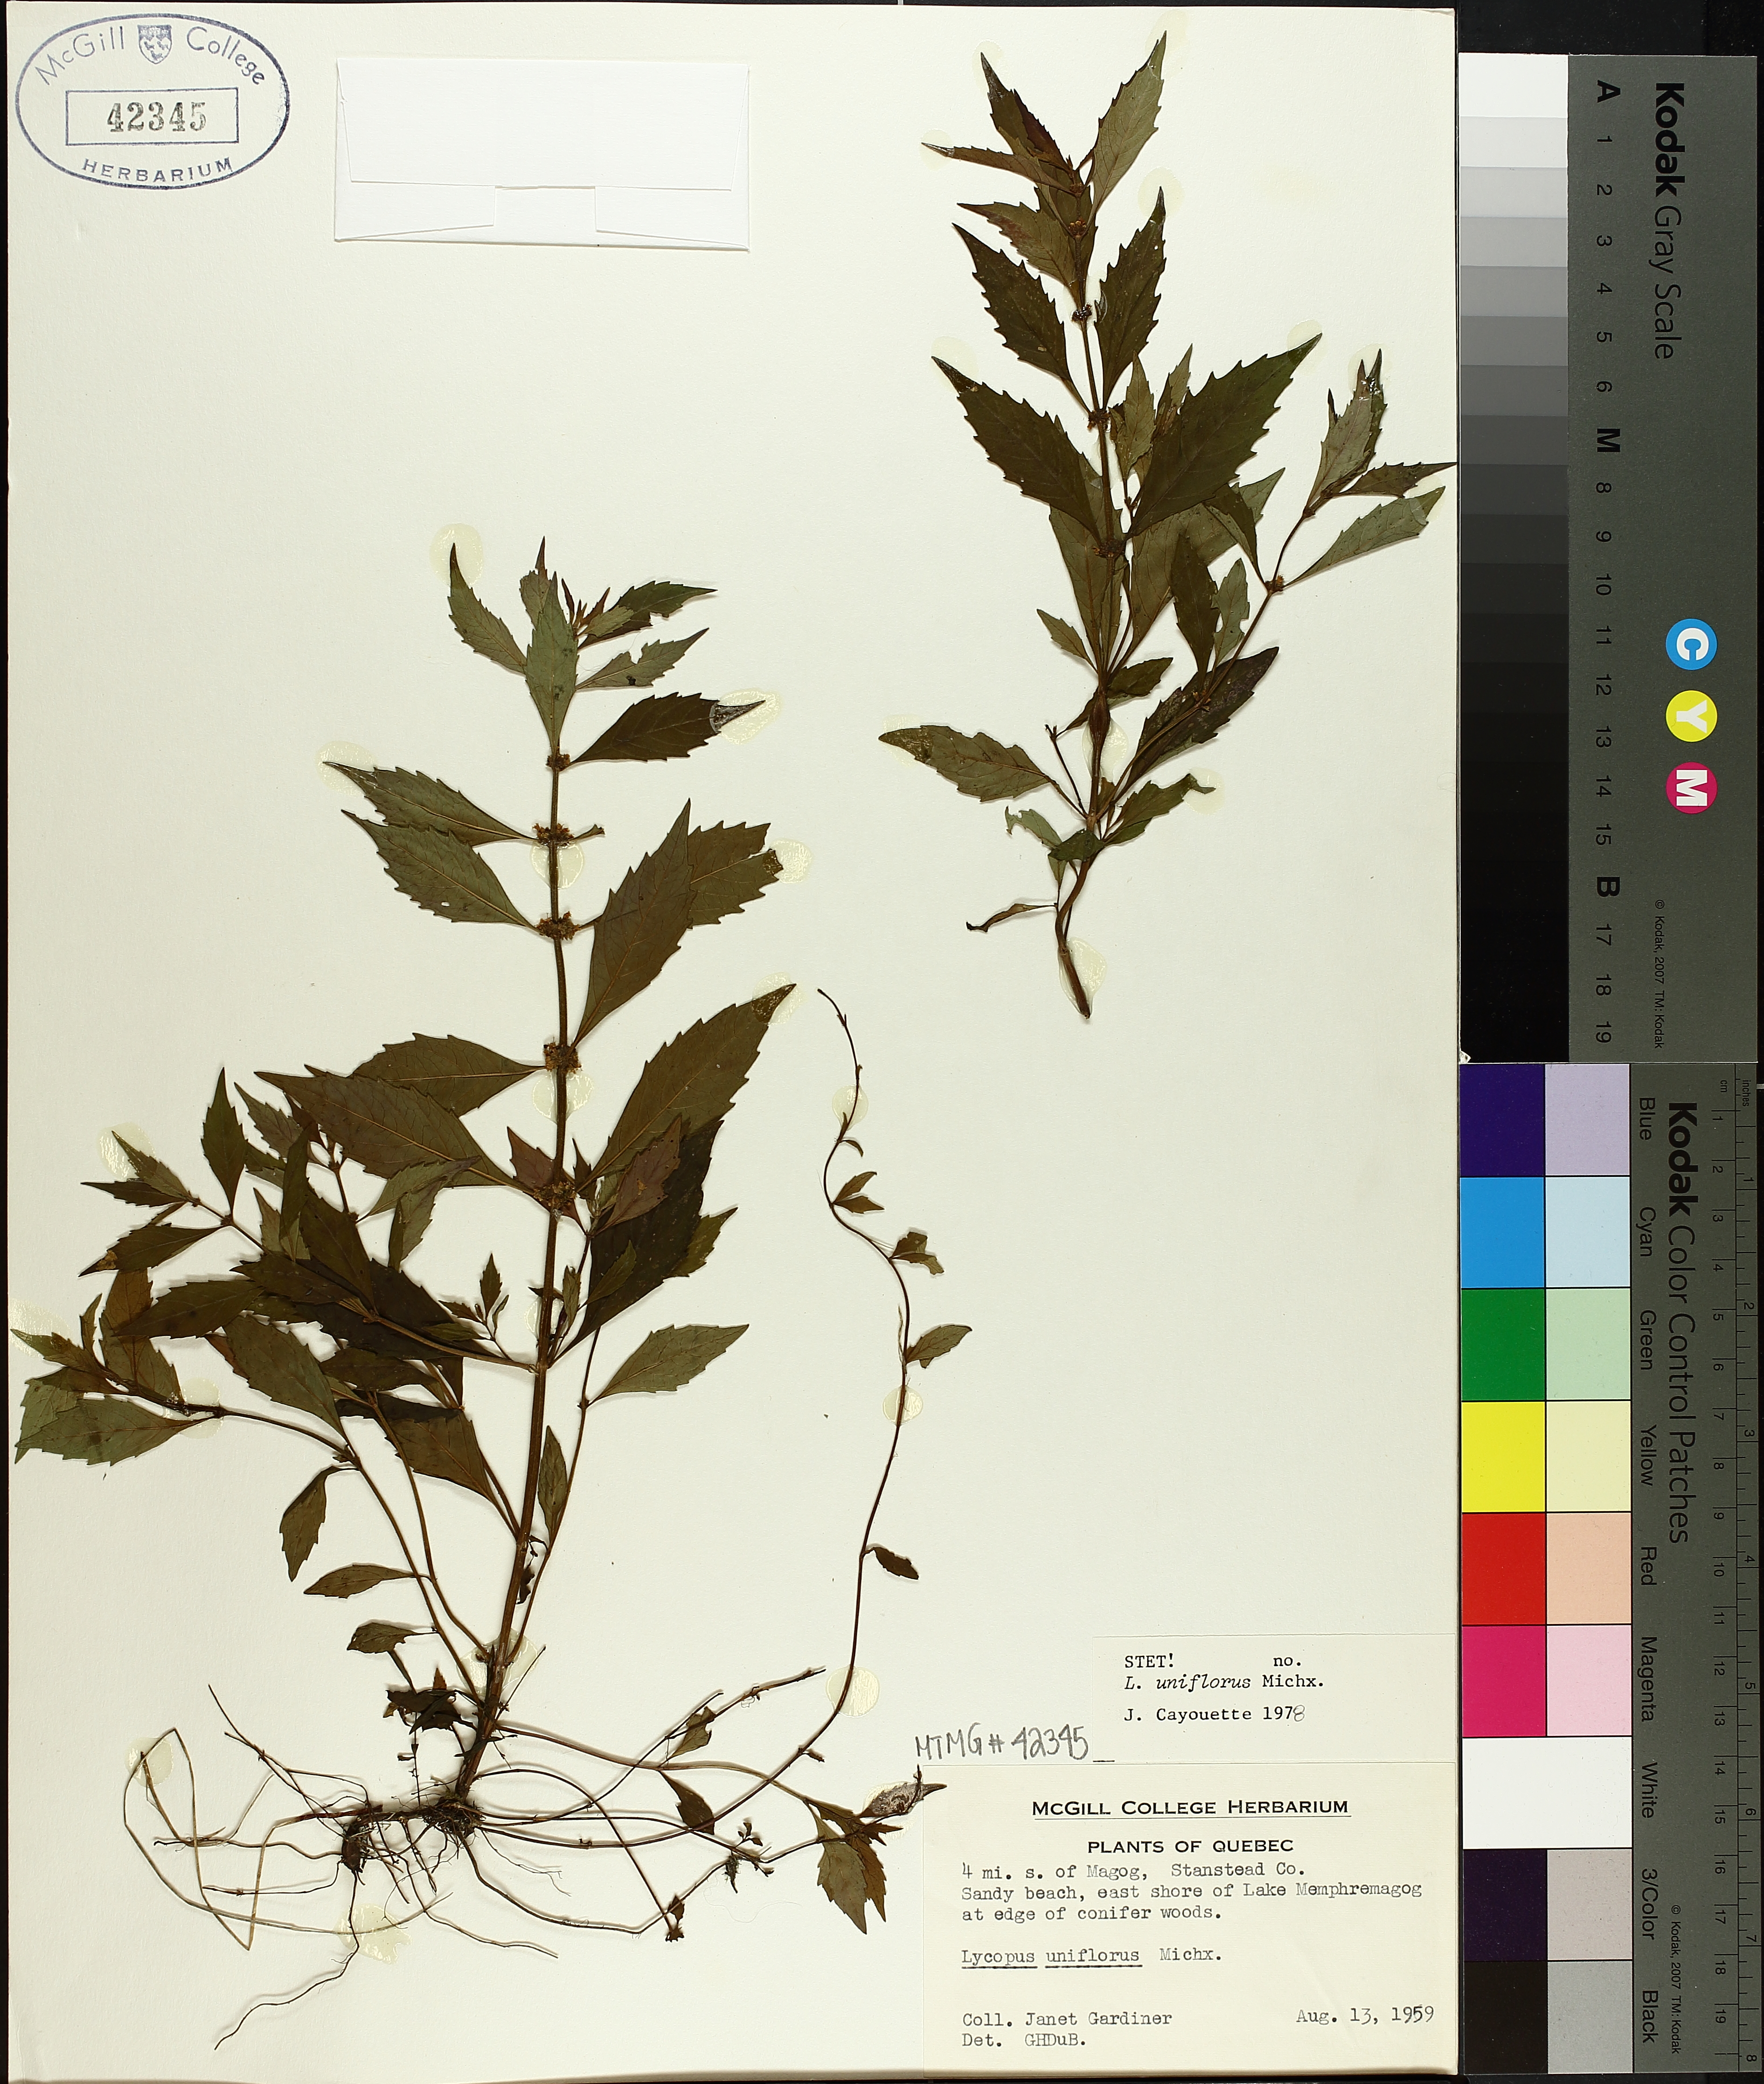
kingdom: Plantae
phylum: Tracheophyta
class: Magnoliopsida
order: Lamiales
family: Lamiaceae
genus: Lycopus
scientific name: Lycopus uniflorus
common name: Northern bugleweed
